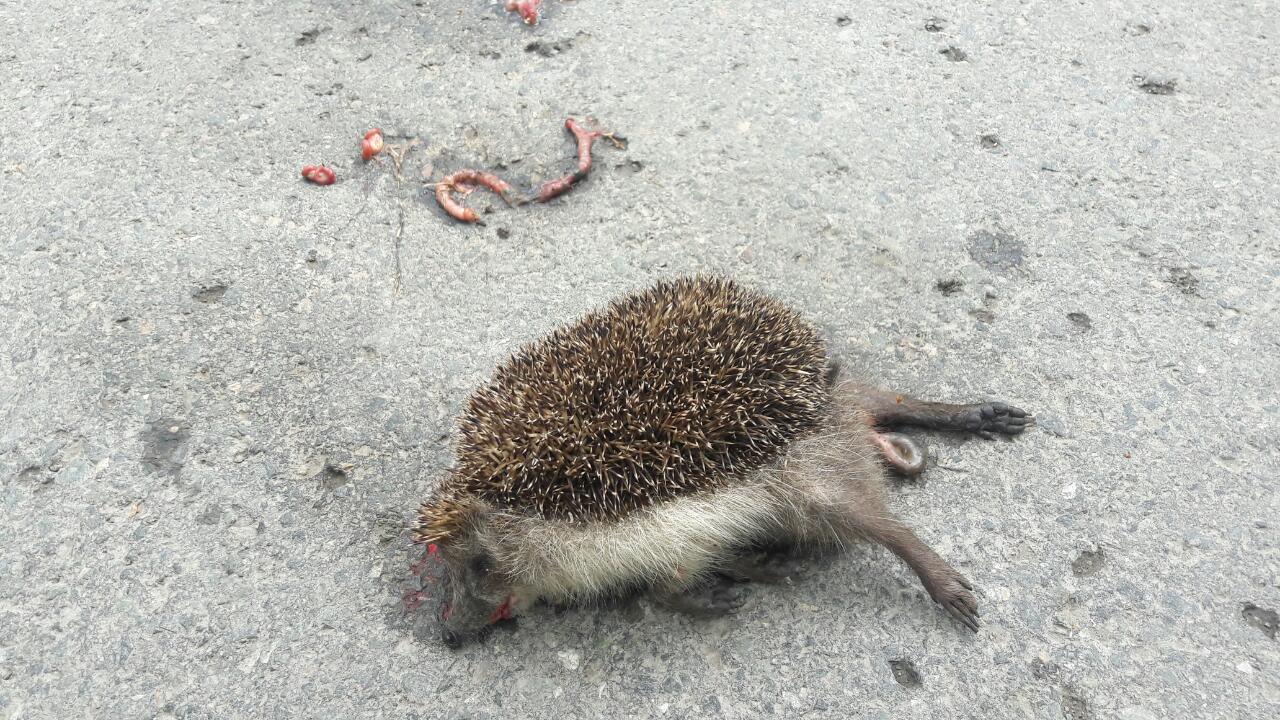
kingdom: Animalia
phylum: Chordata
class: Mammalia
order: Erinaceomorpha
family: Erinaceidae
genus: Erinaceus
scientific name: Erinaceus
